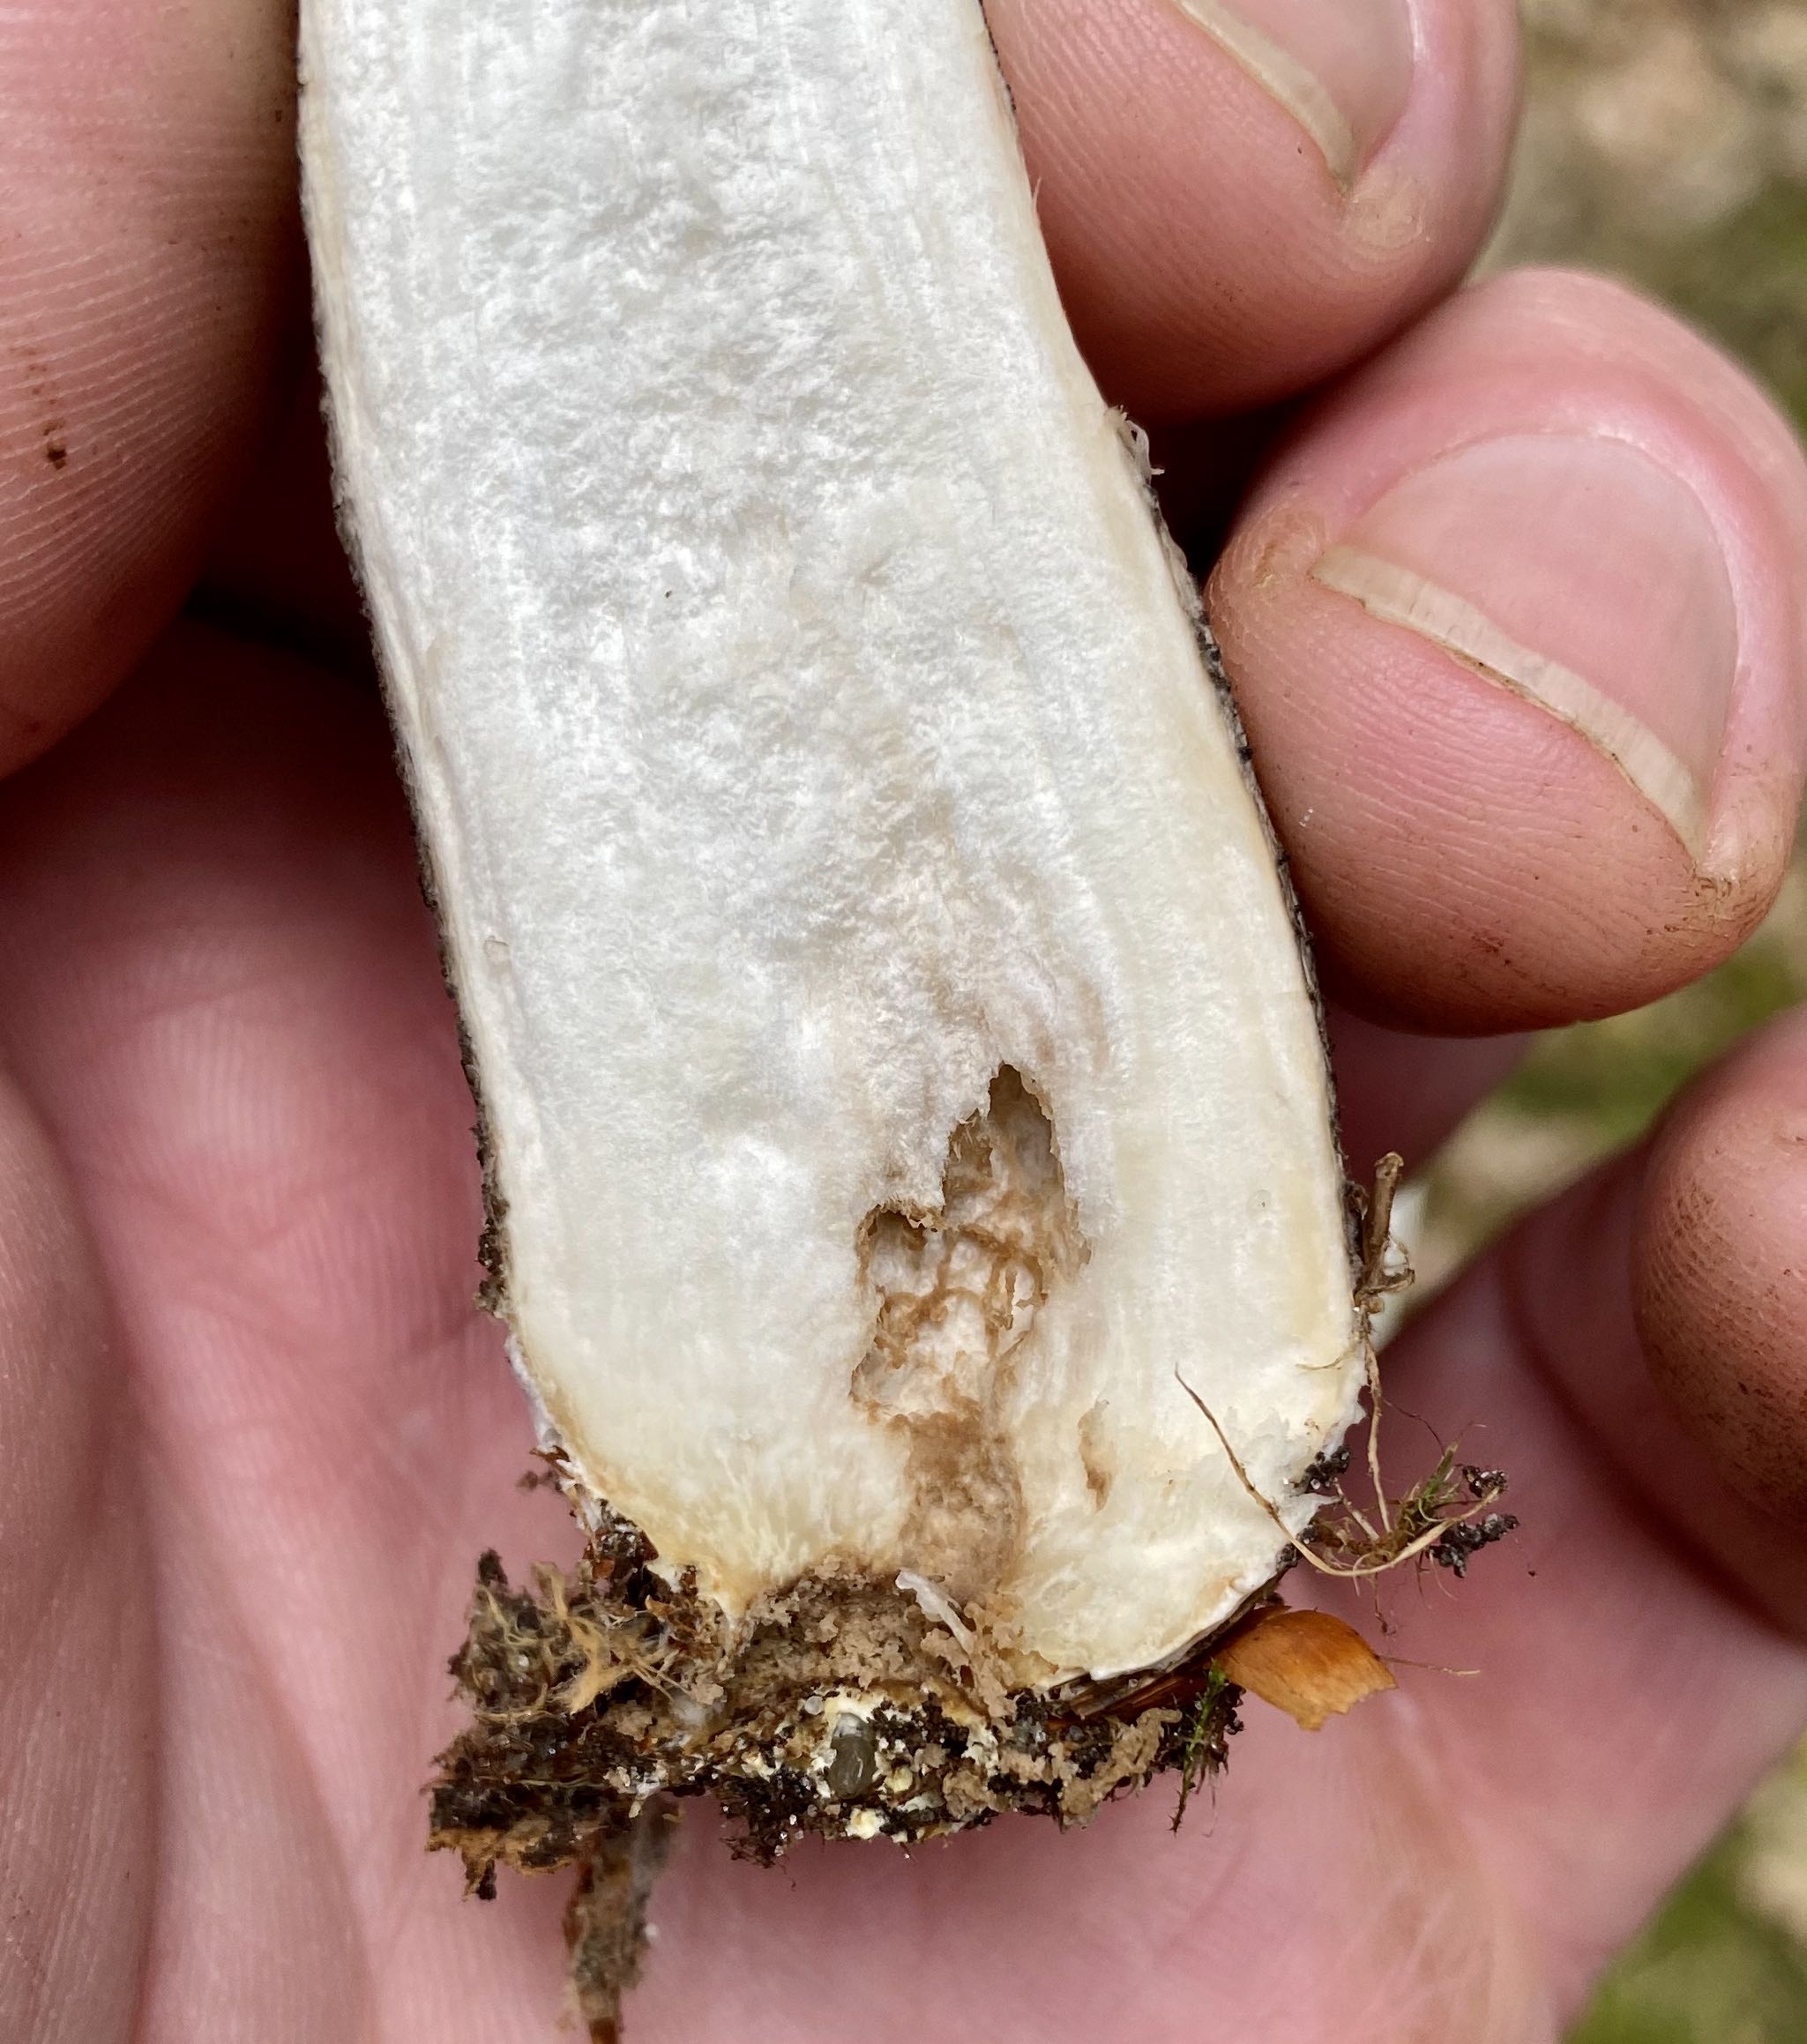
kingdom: Fungi
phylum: Basidiomycota
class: Agaricomycetes
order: Boletales
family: Boletaceae
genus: Leccinum
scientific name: Leccinum scabrum
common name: brun skælrørhat
